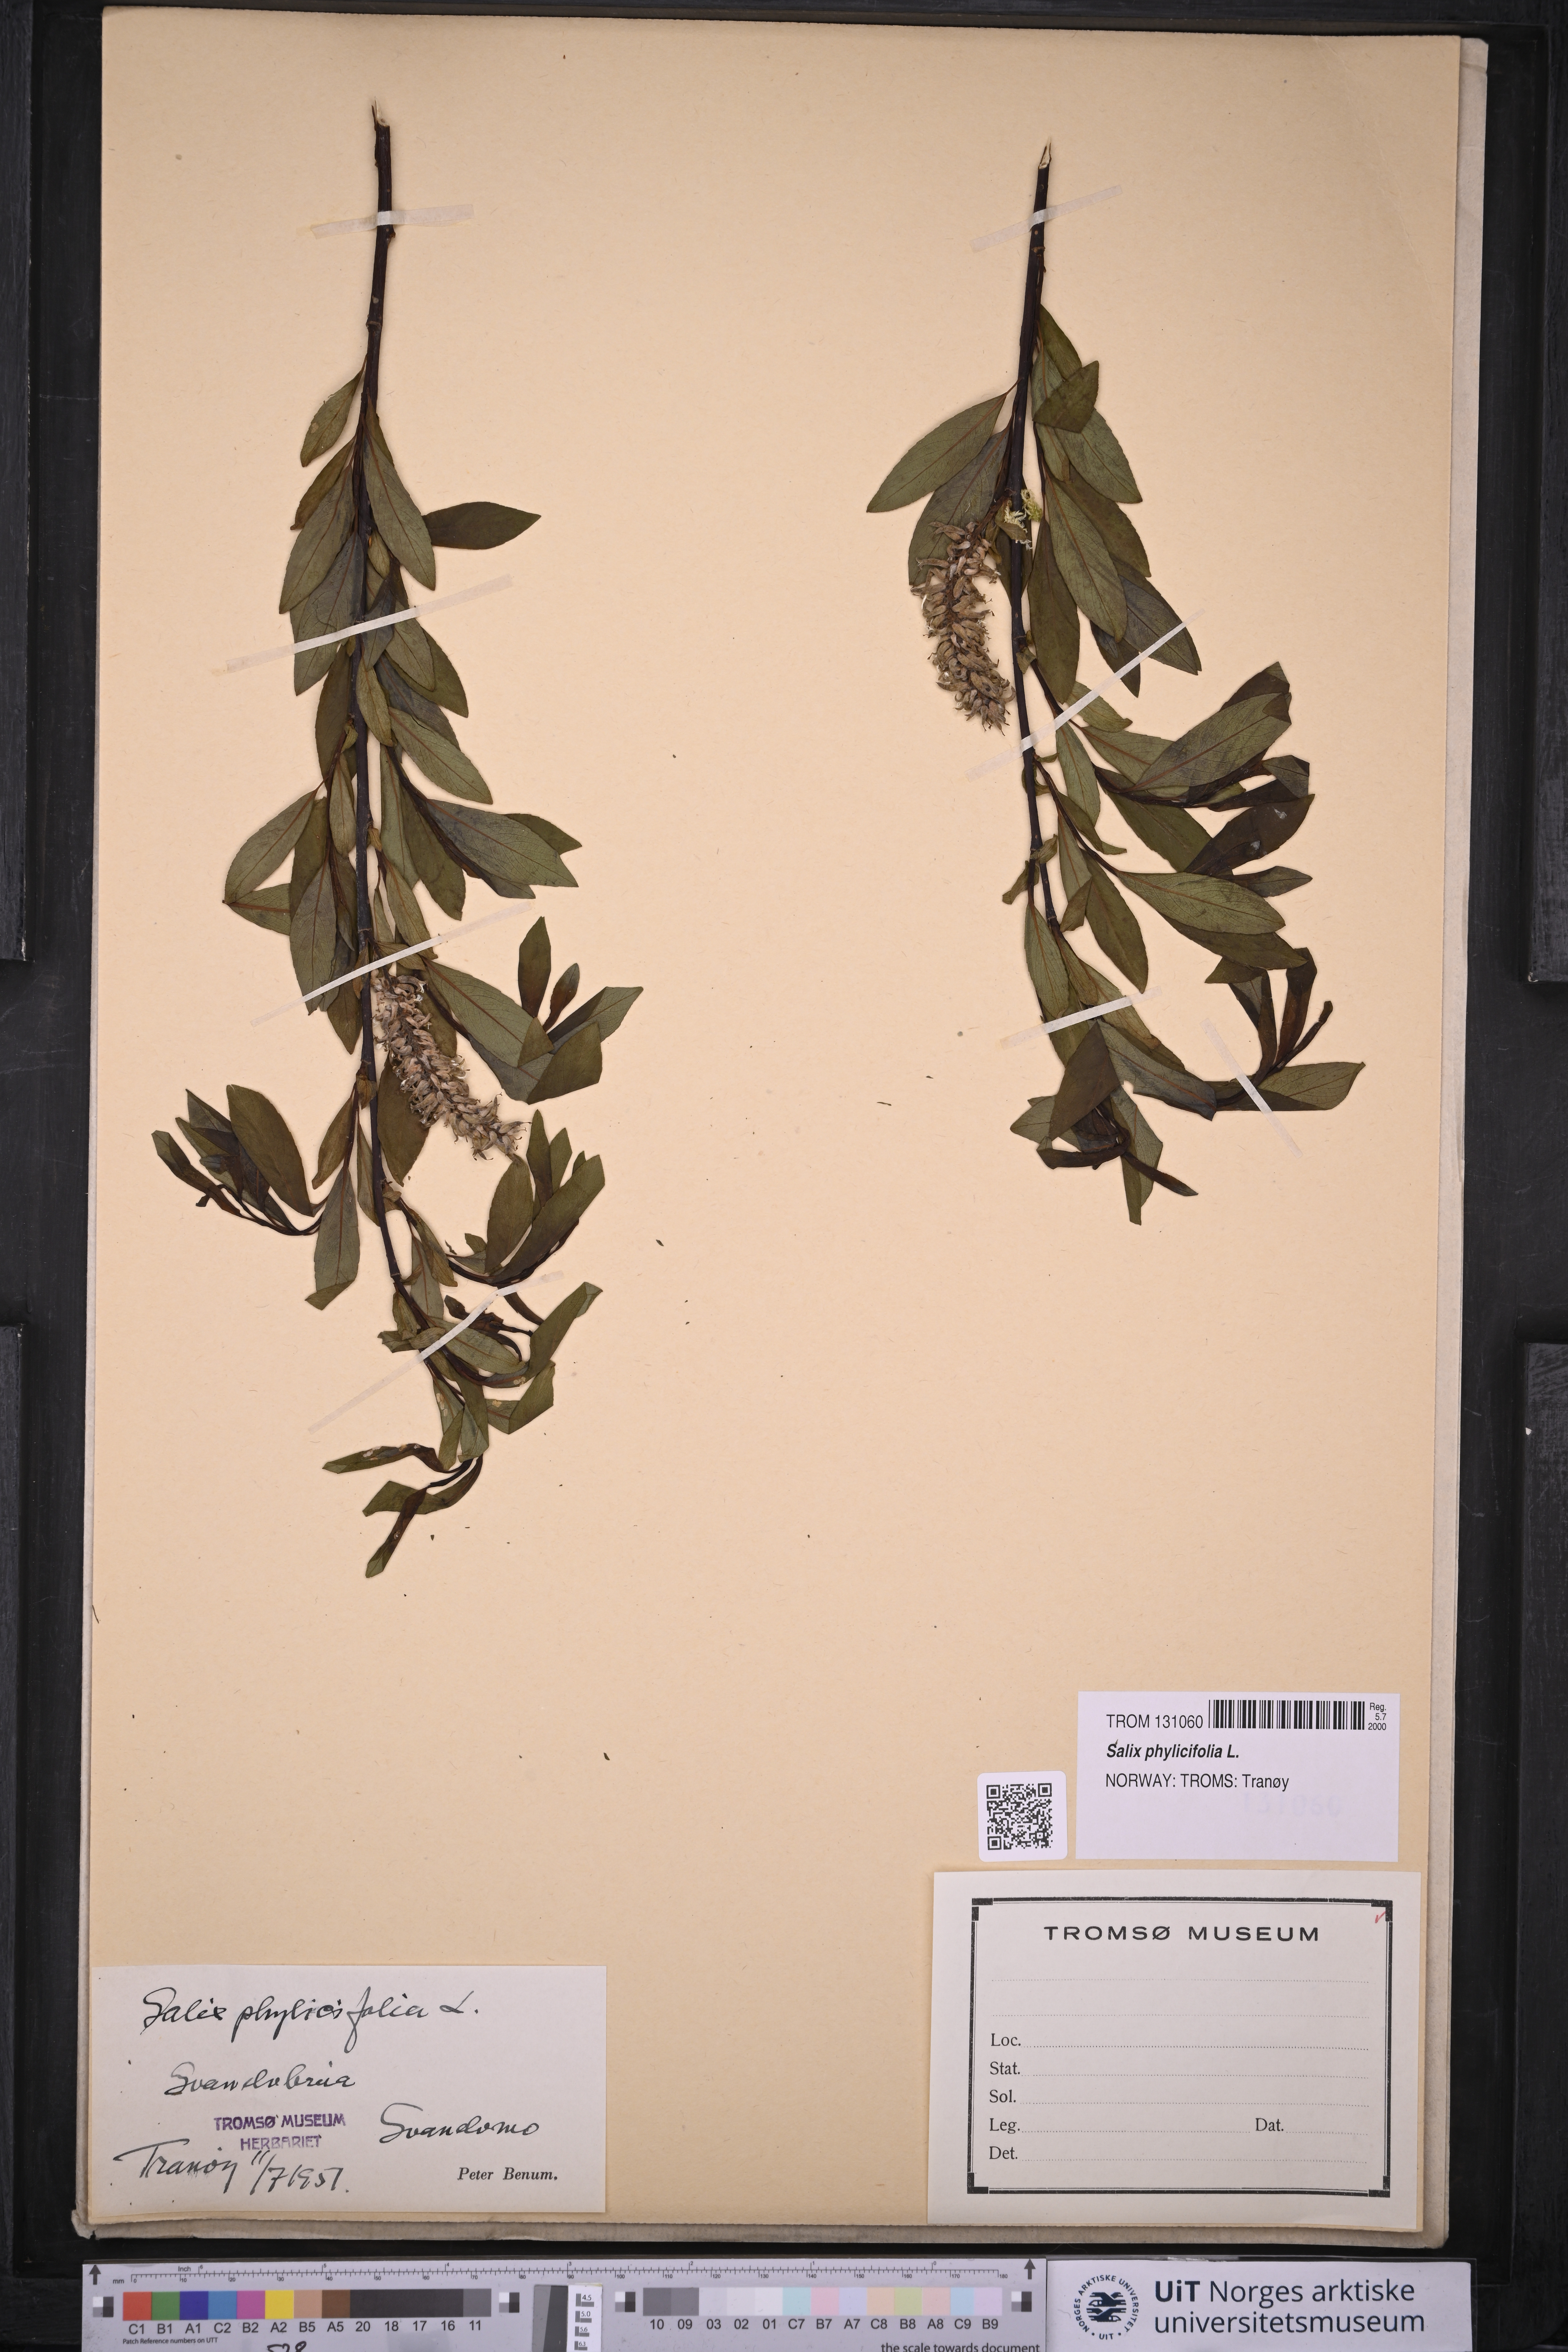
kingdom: Plantae
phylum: Tracheophyta
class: Magnoliopsida
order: Malpighiales
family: Salicaceae
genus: Salix
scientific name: Salix phylicifolia
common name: Tea-leaved willow
